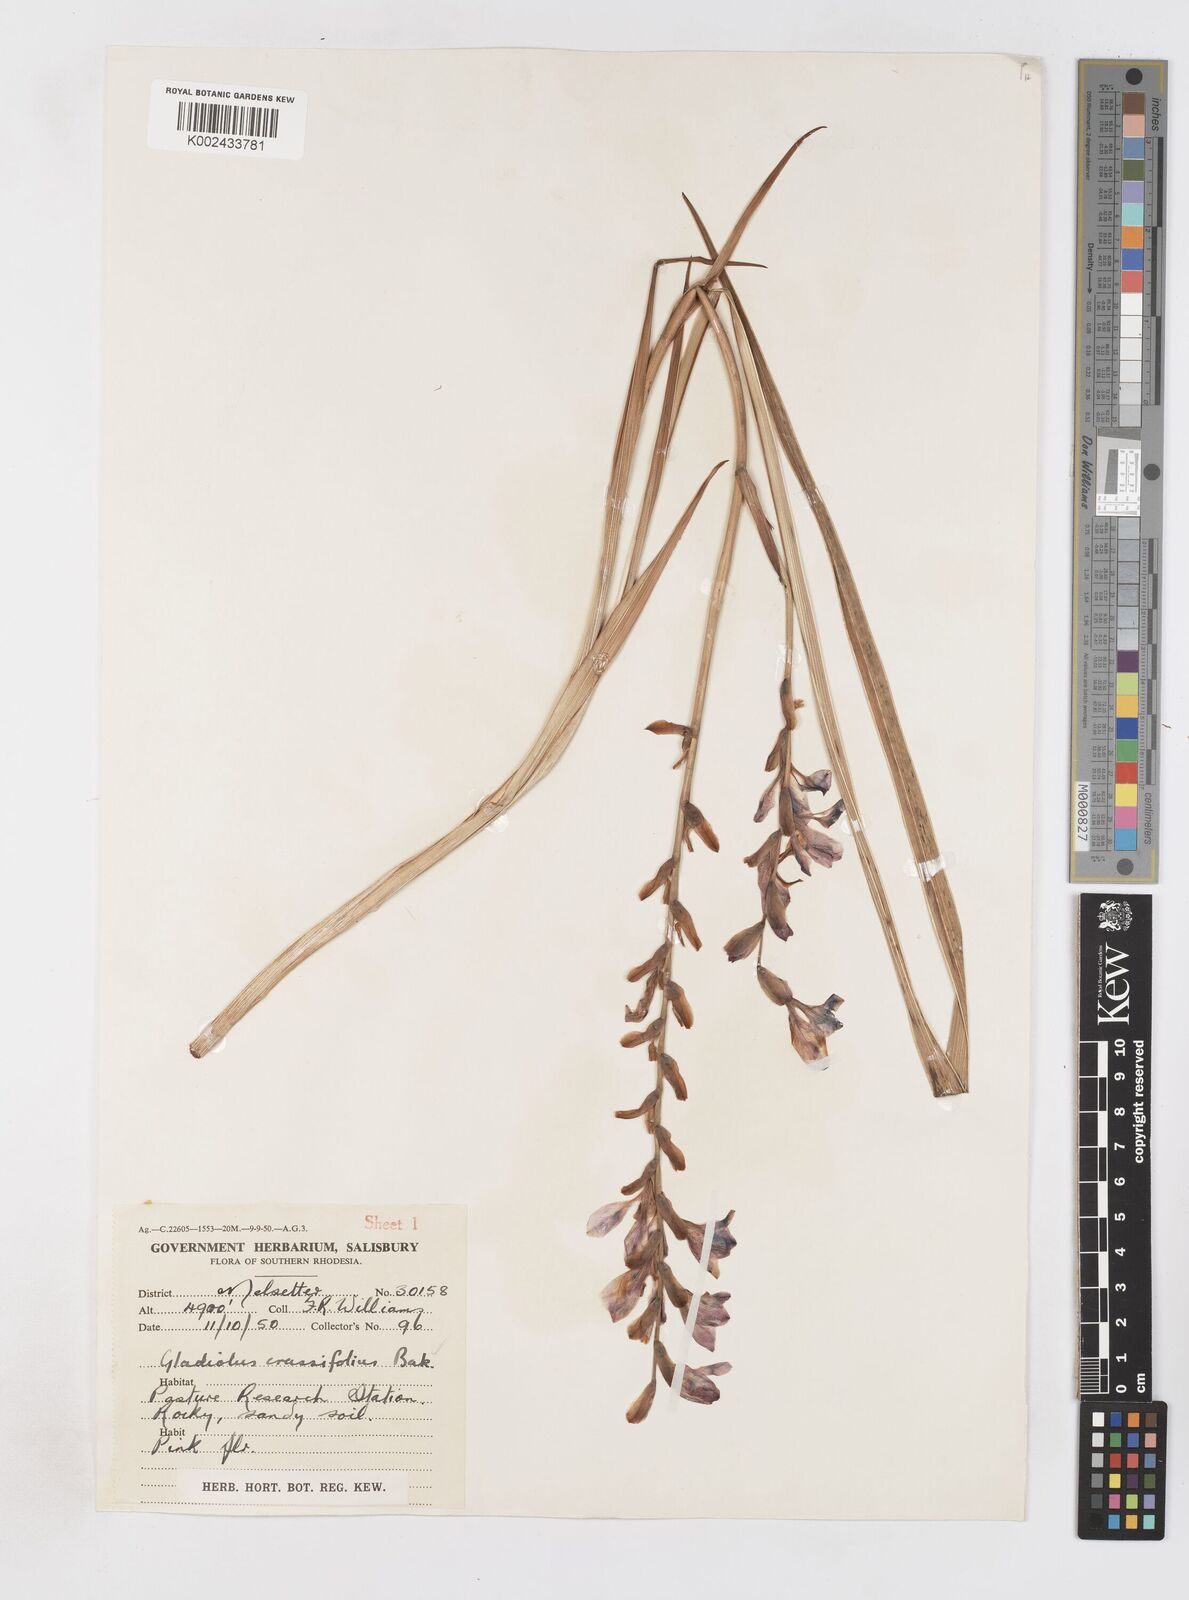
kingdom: Plantae
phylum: Tracheophyta
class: Liliopsida
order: Asparagales
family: Iridaceae
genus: Gladiolus
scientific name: Gladiolus crassifolius
